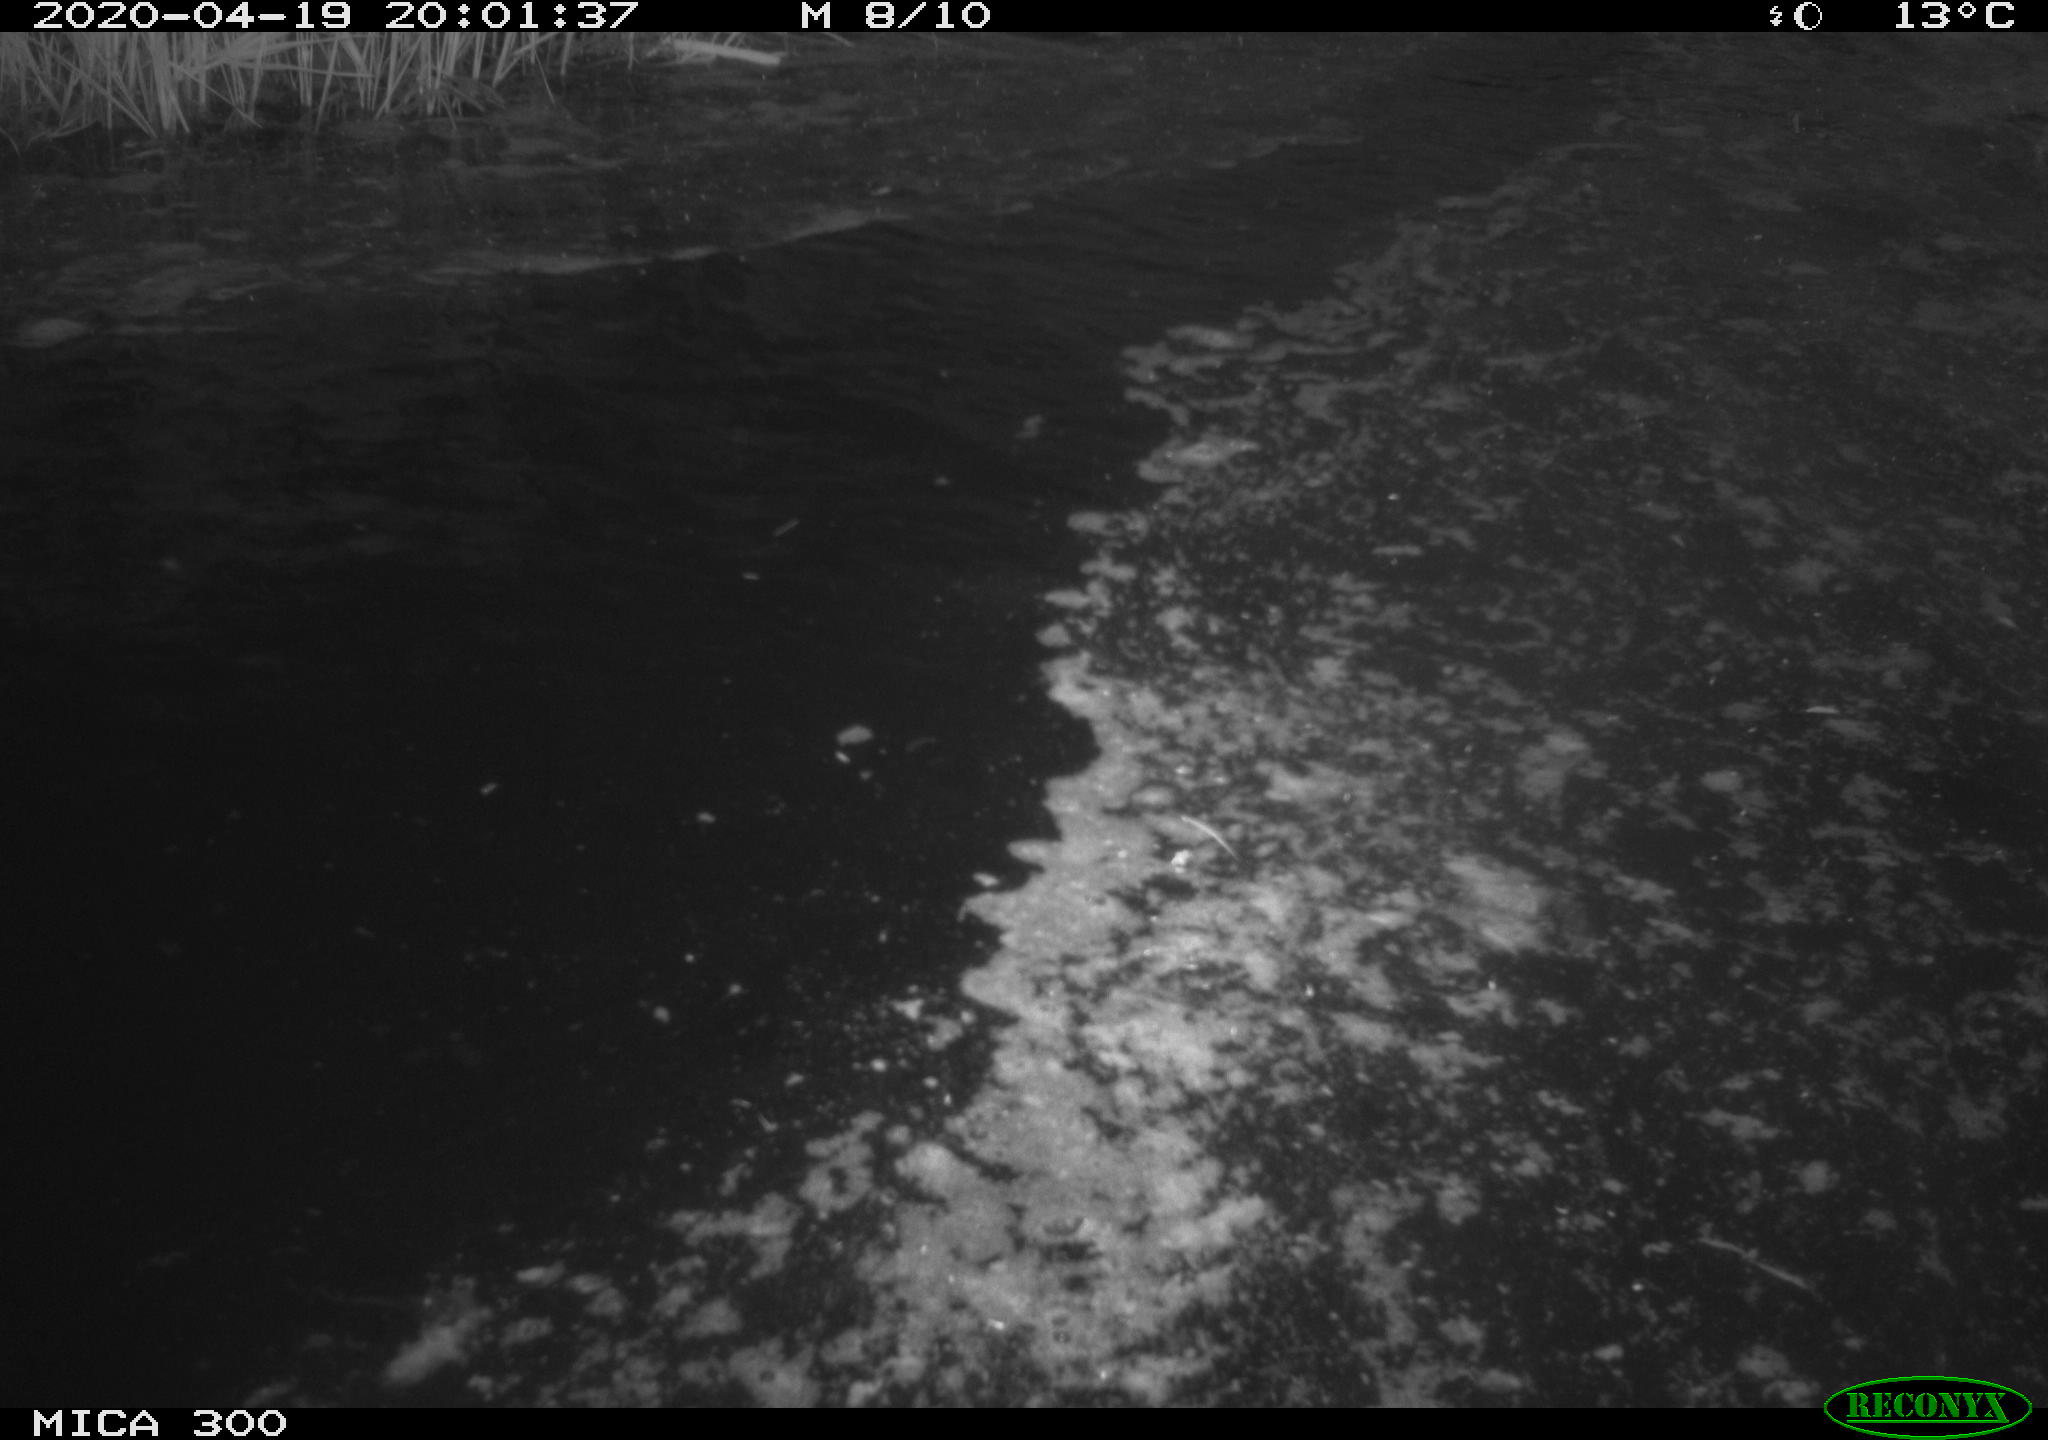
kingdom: Animalia
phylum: Chordata
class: Aves
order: Anseriformes
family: Anatidae
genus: Anas
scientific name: Anas platyrhynchos
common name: Mallard
